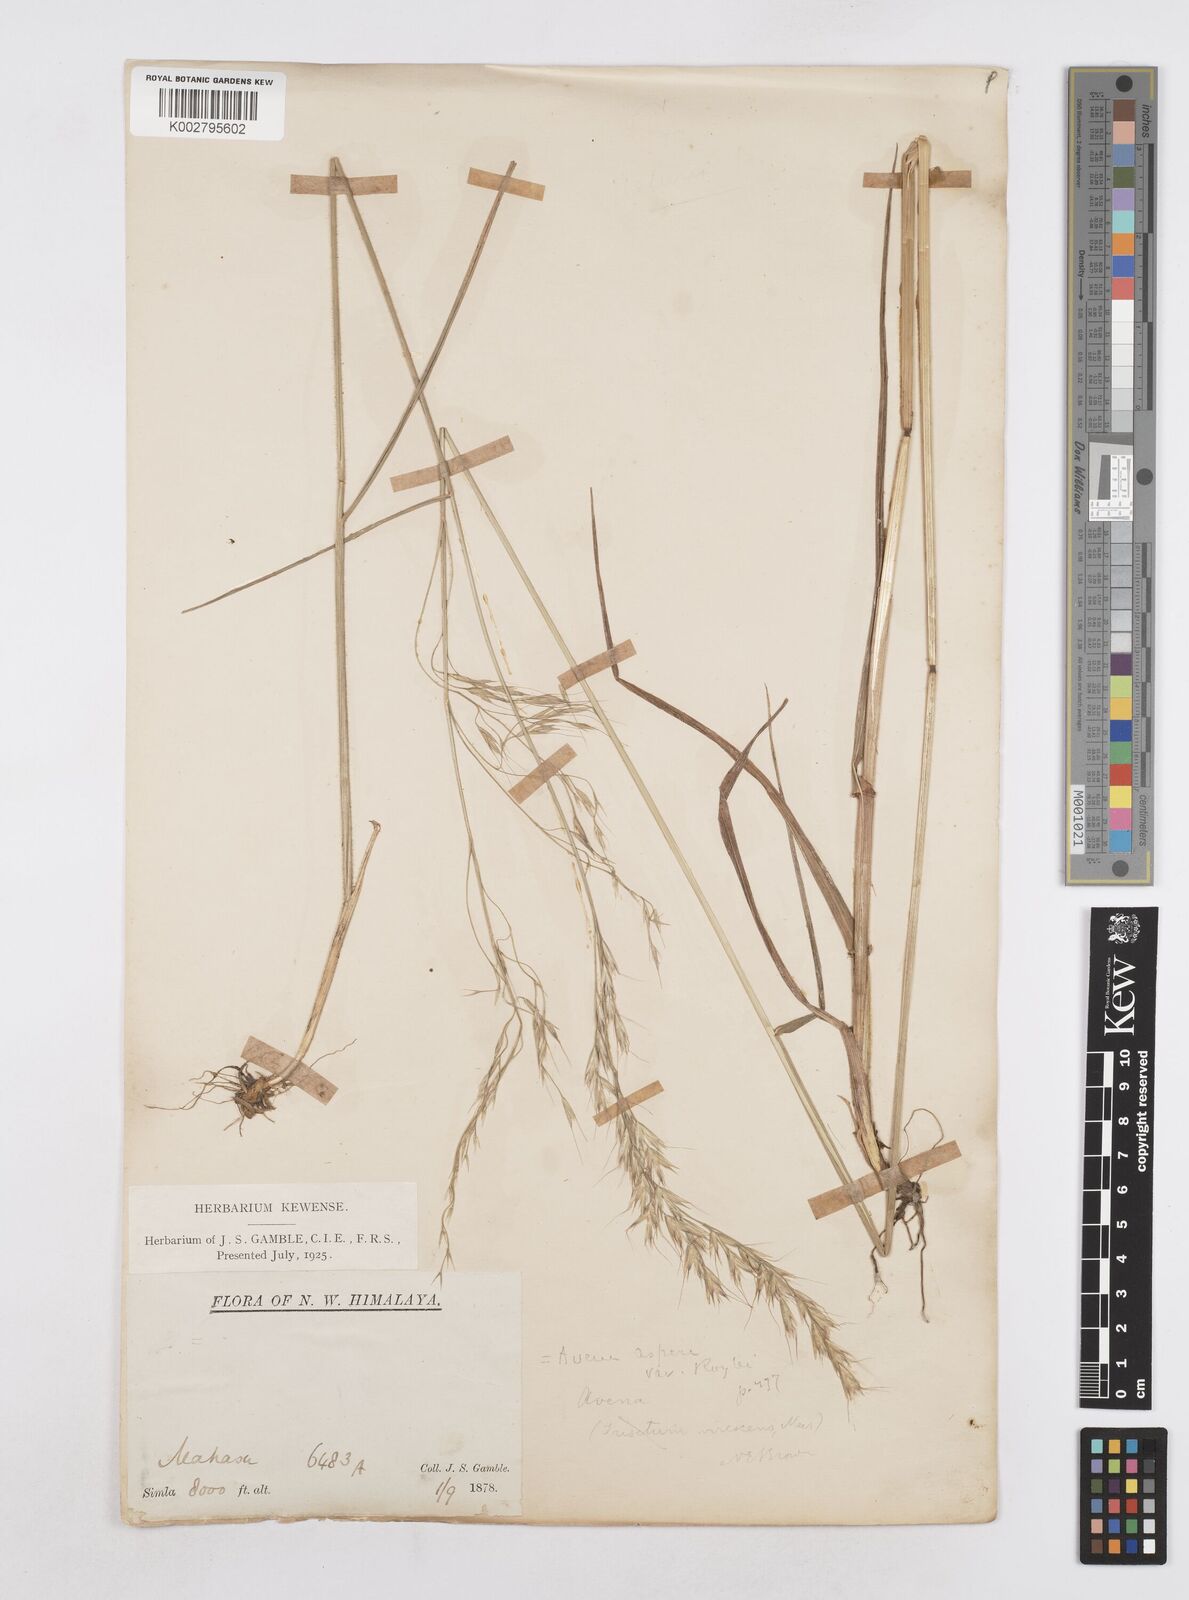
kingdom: Plantae
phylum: Tracheophyta
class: Liliopsida
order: Poales
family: Poaceae
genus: Helictotrichon
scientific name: Helictotrichon
